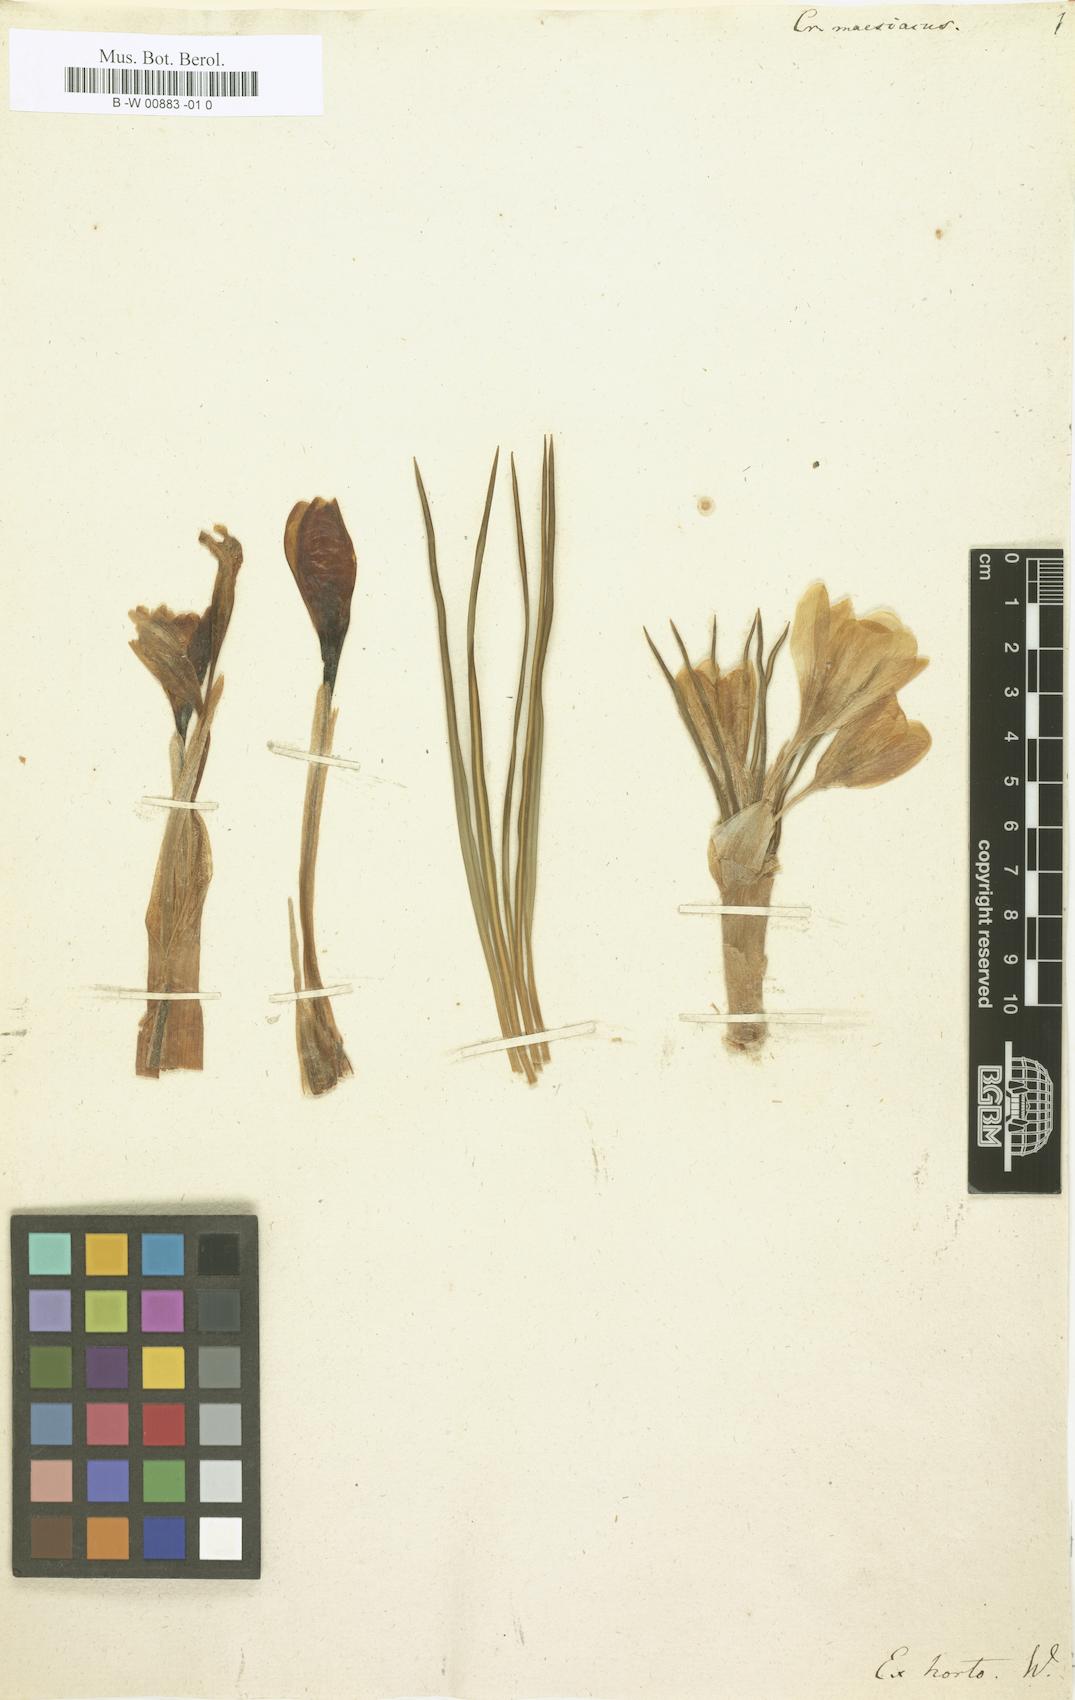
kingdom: Plantae
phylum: Tracheophyta
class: Liliopsida
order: Asparagales
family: Iridaceae
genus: Crocus
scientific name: Crocus flavus
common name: Yellow crocus
